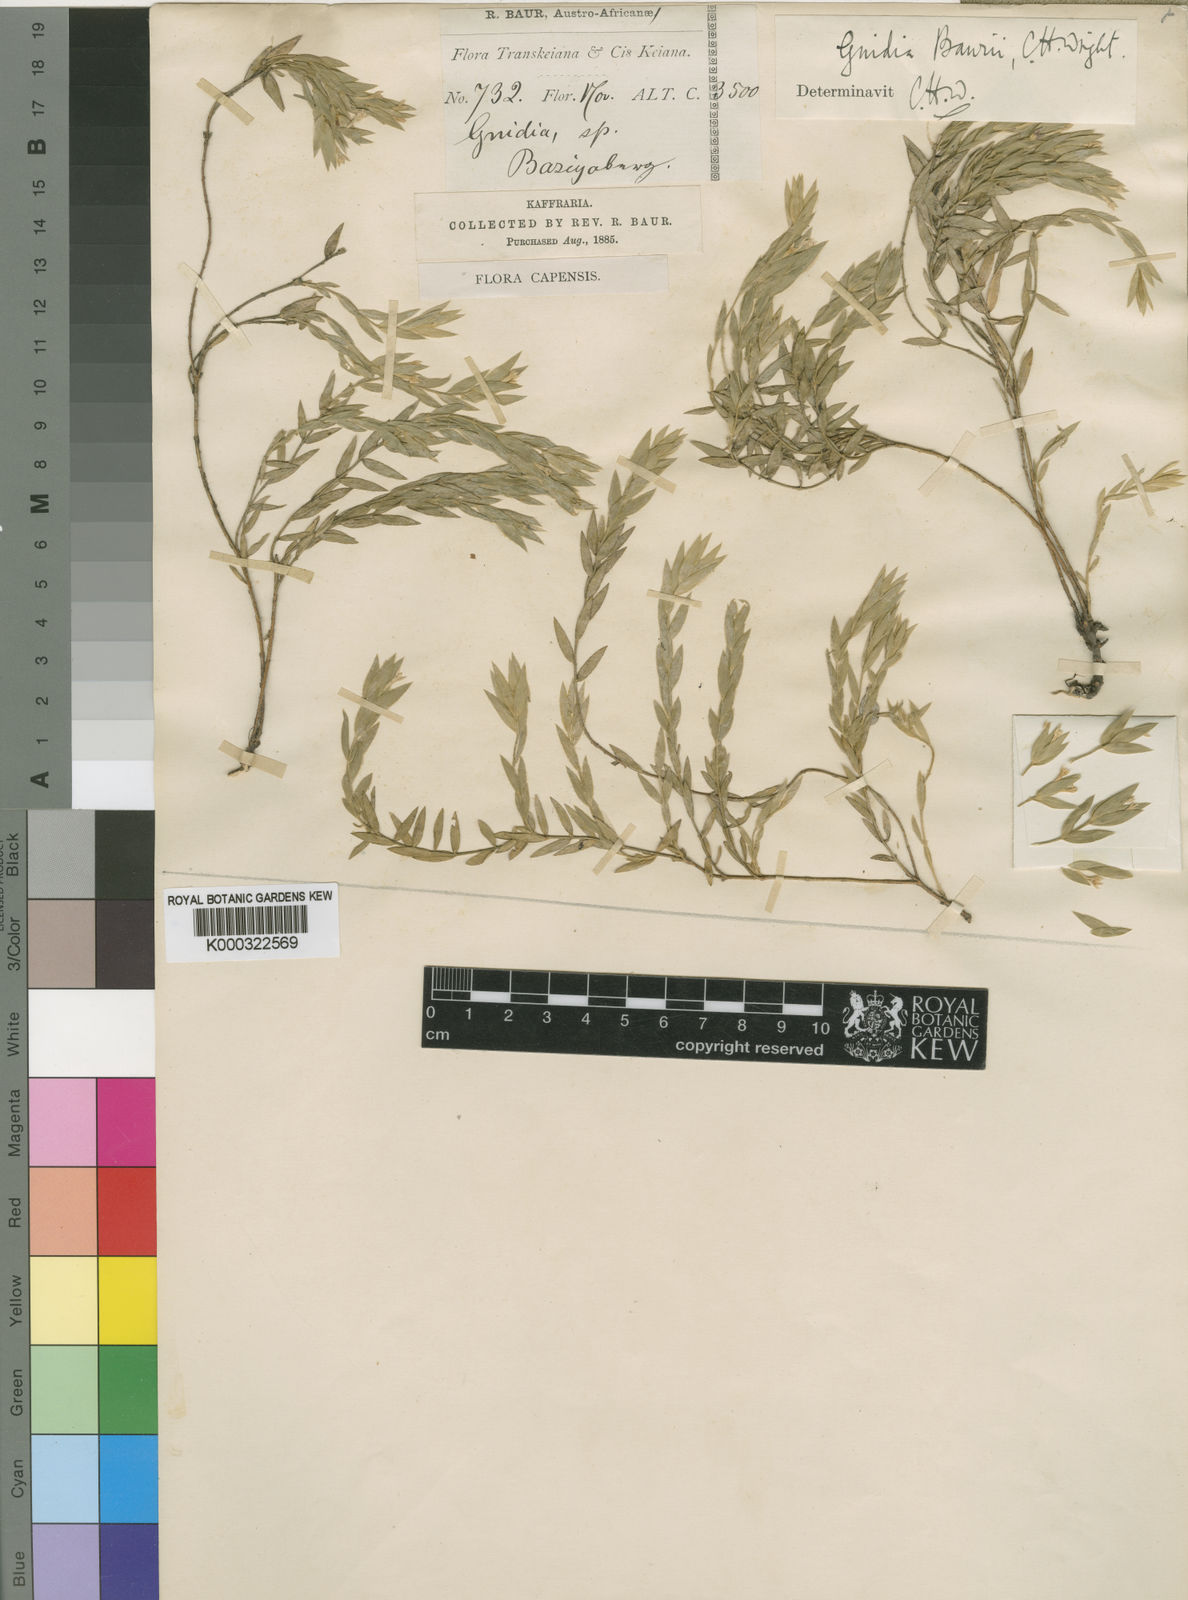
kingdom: Plantae
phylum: Tracheophyta
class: Magnoliopsida
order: Malvales
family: Thymelaeaceae
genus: Gnidia
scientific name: Gnidia baurii
